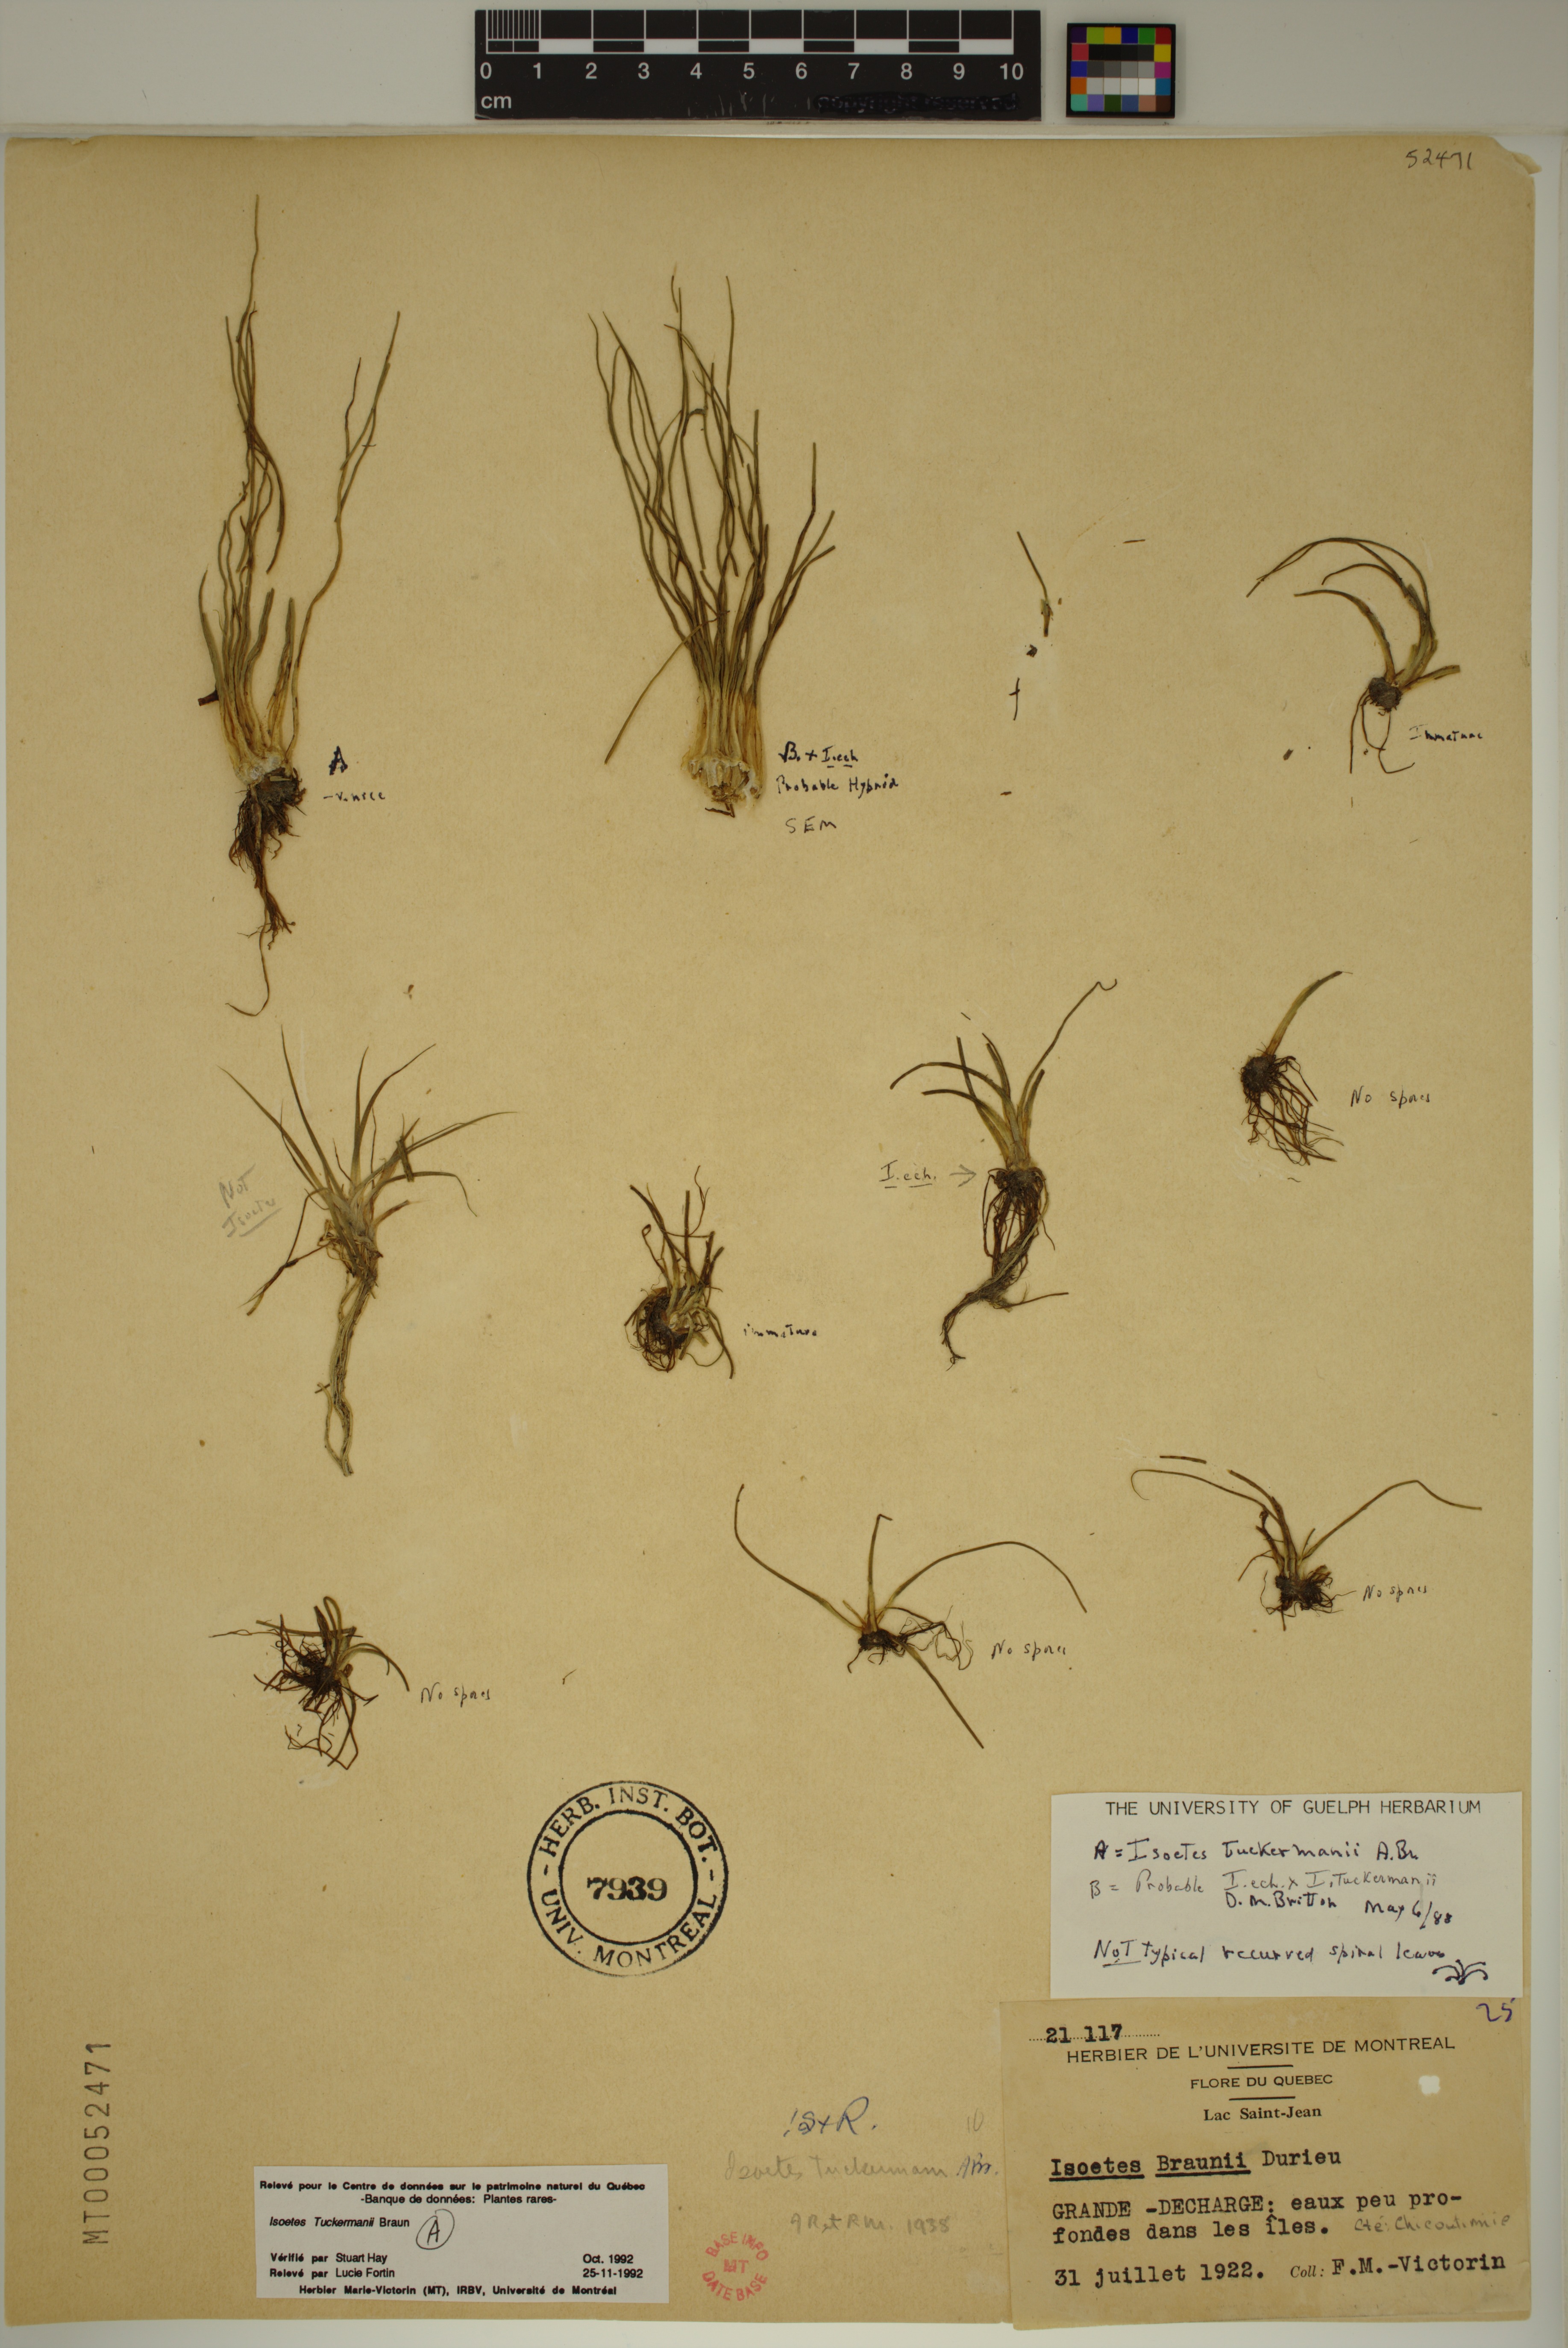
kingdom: Plantae
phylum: Tracheophyta
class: Lycopodiopsida
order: Isoetales
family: Isoetaceae
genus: Isoetes
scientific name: Isoetes tuckermanii
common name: Tuckerman's quillwort
